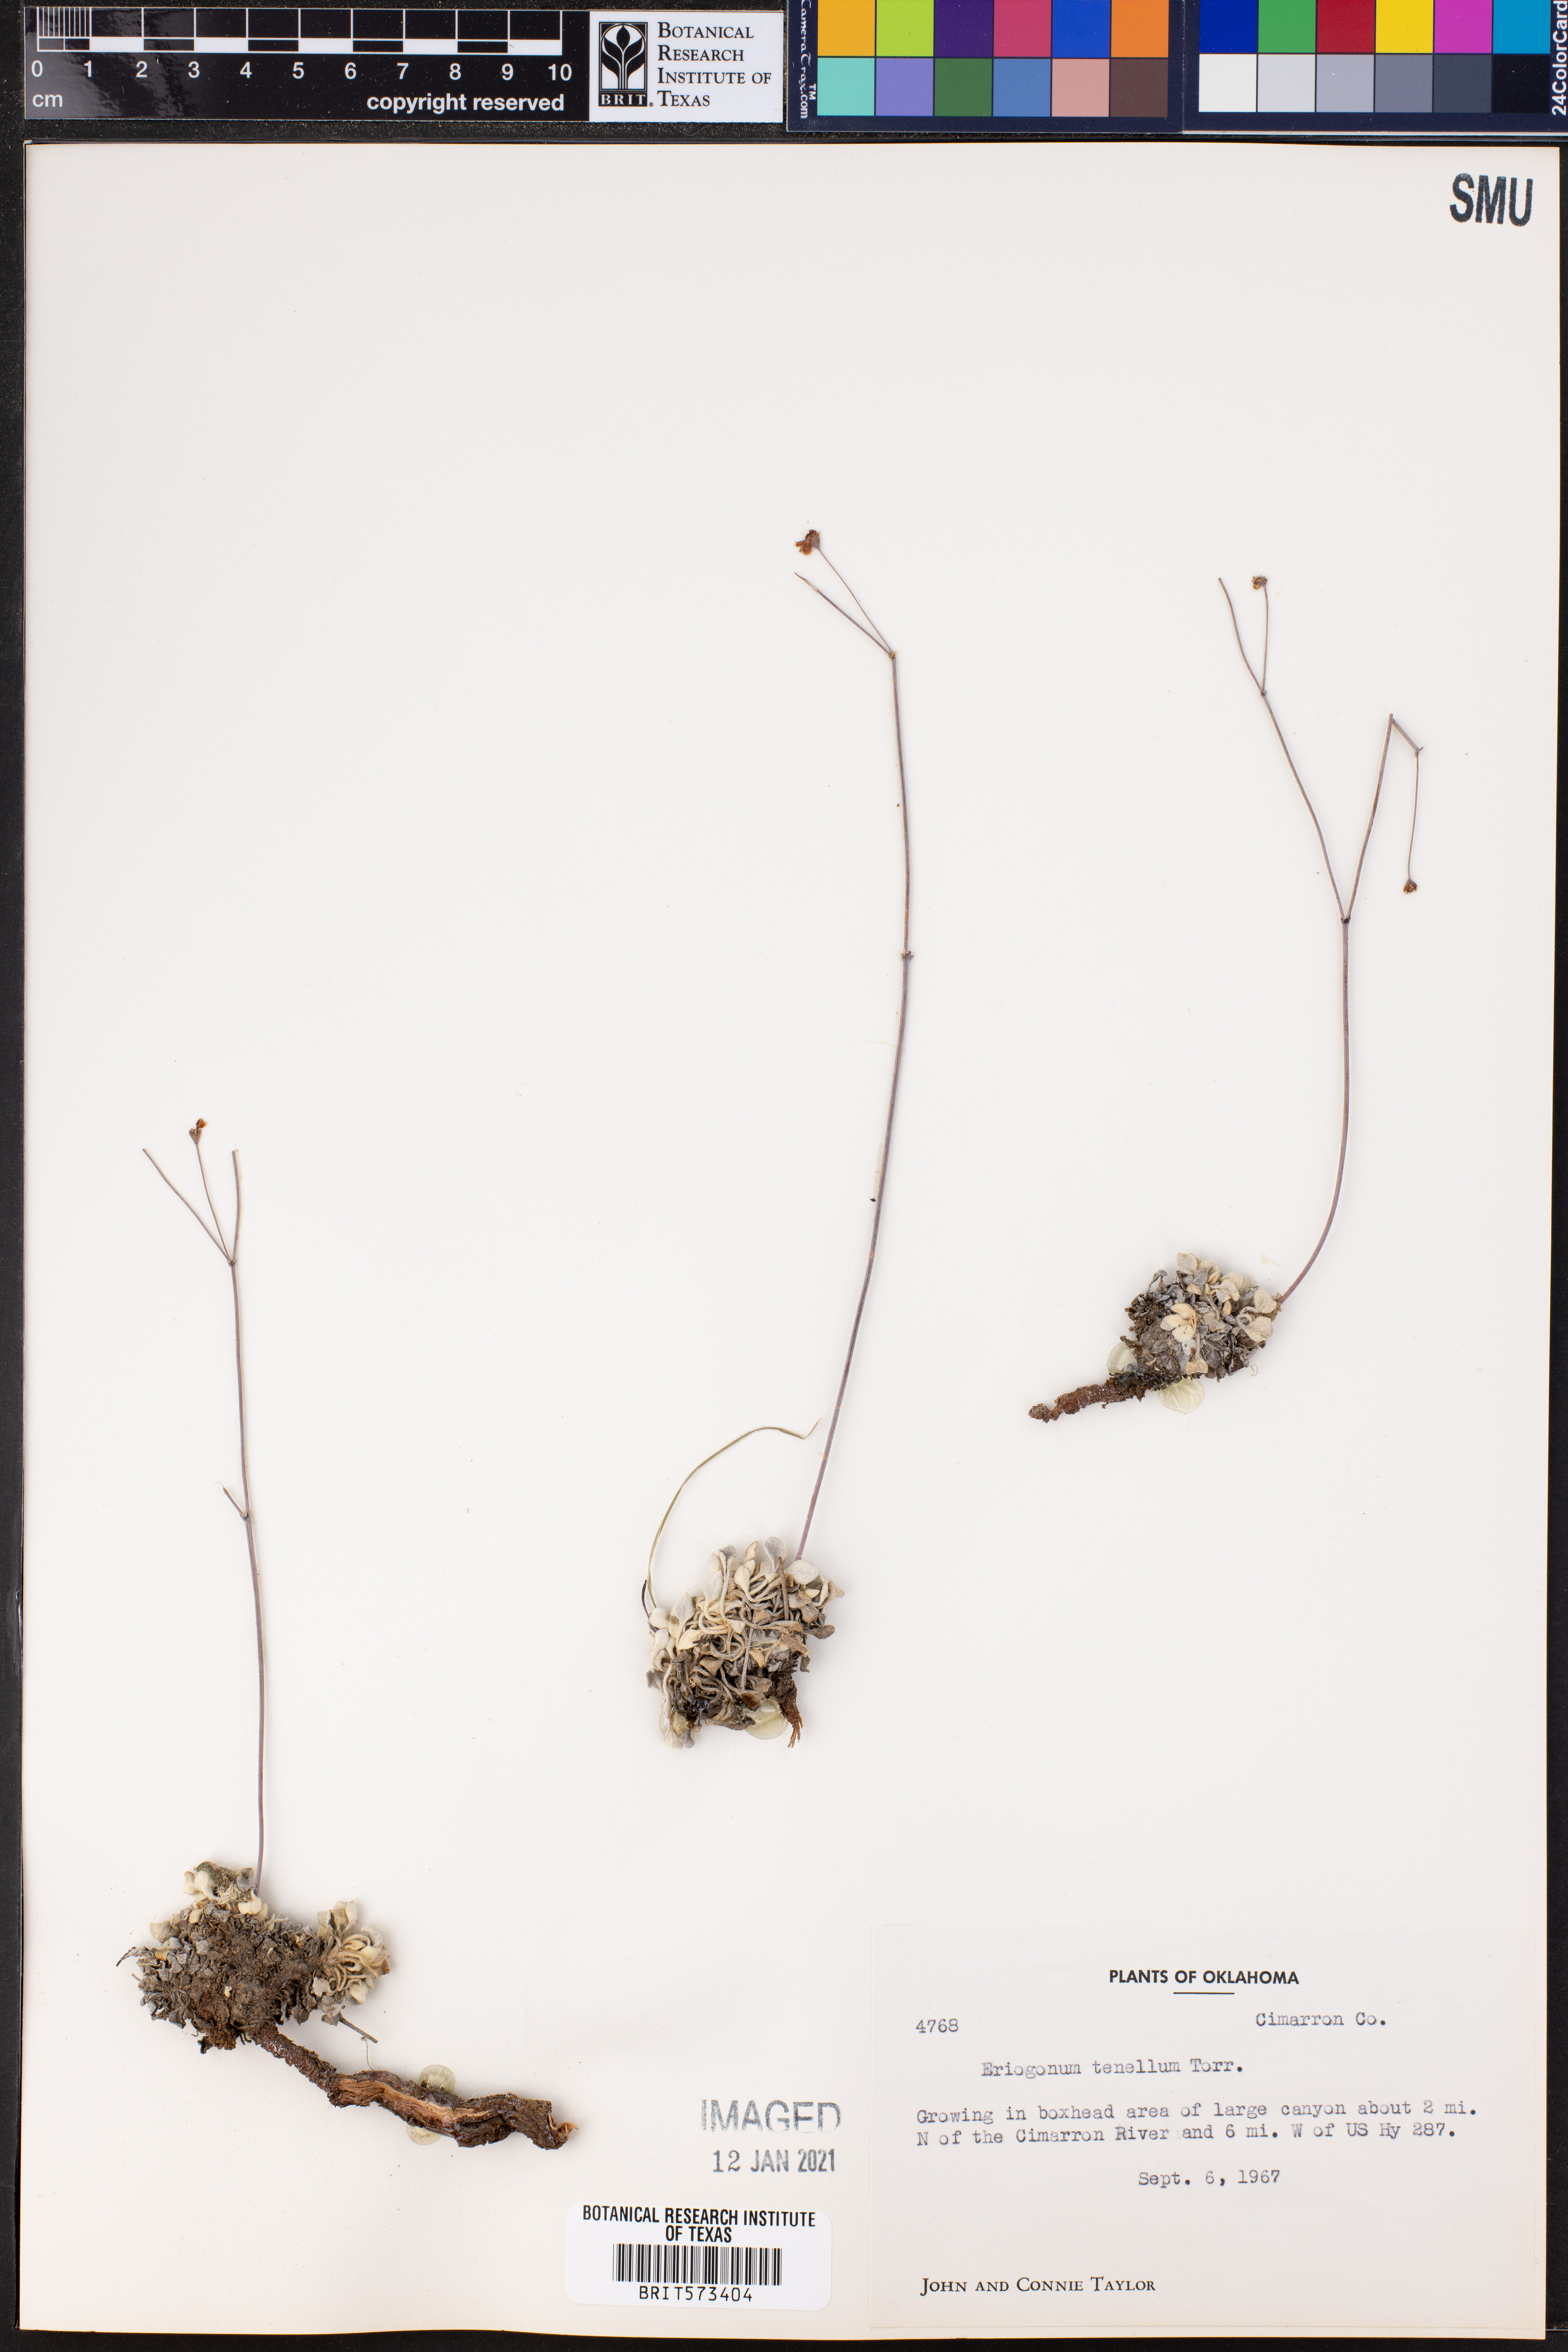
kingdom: Plantae
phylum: Tracheophyta
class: Magnoliopsida
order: Caryophyllales
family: Polygonaceae
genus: Eriogonum
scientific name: Eriogonum tenellum
